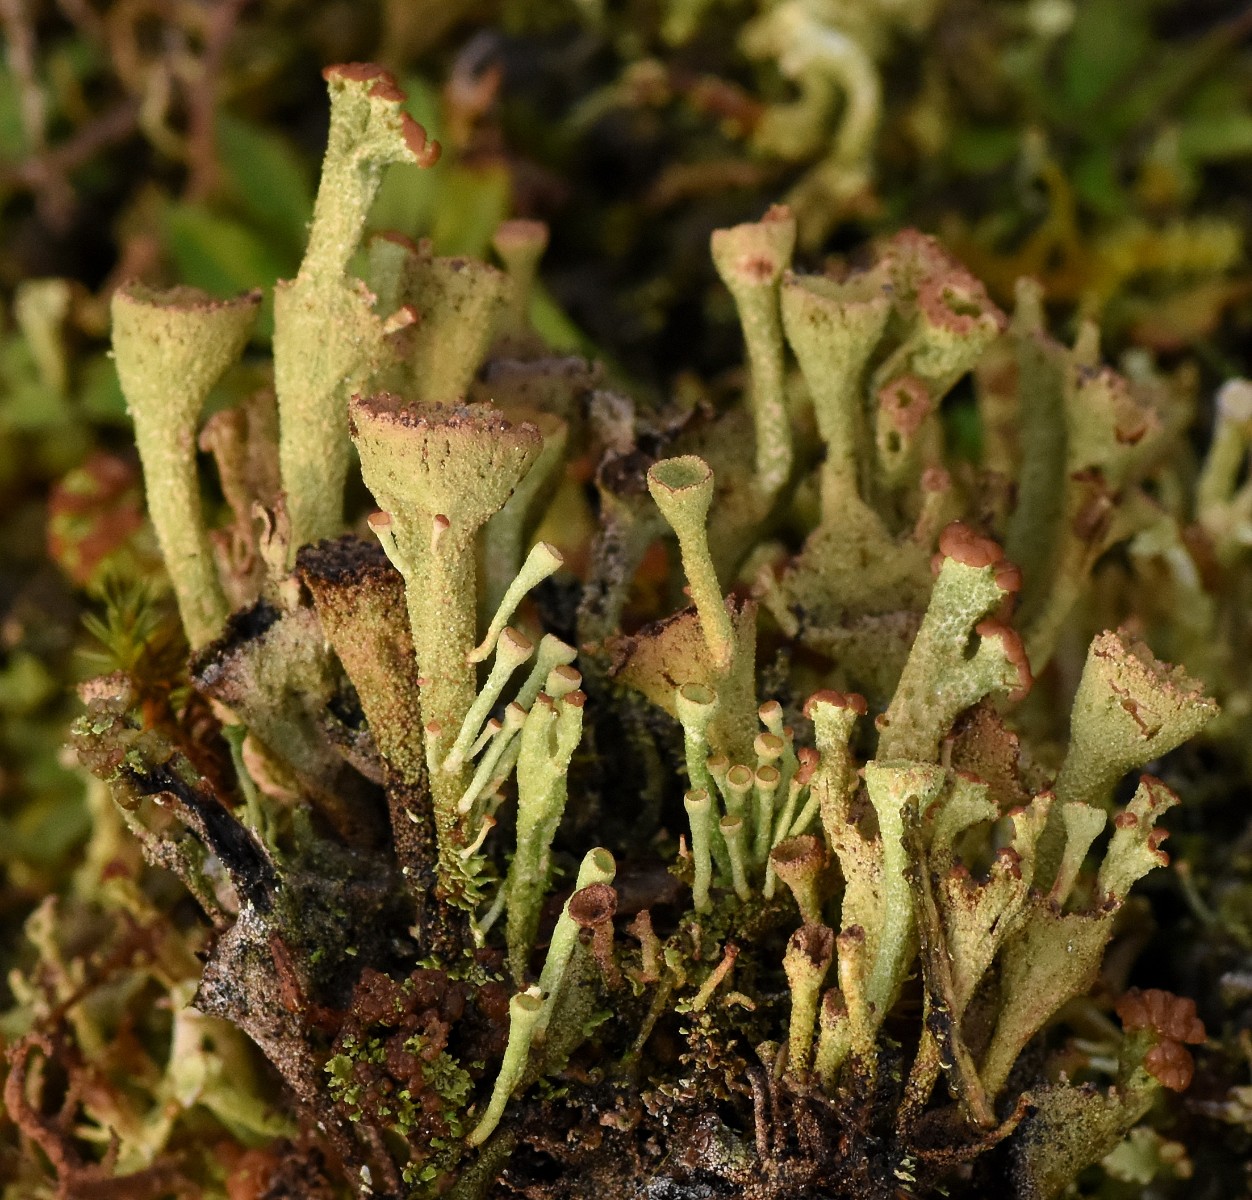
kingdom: Fungi
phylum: Ascomycota
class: Lecanoromycetes
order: Lecanorales
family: Cladoniaceae
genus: Cladonia
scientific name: Cladonia
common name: brungrøn bægerlav
